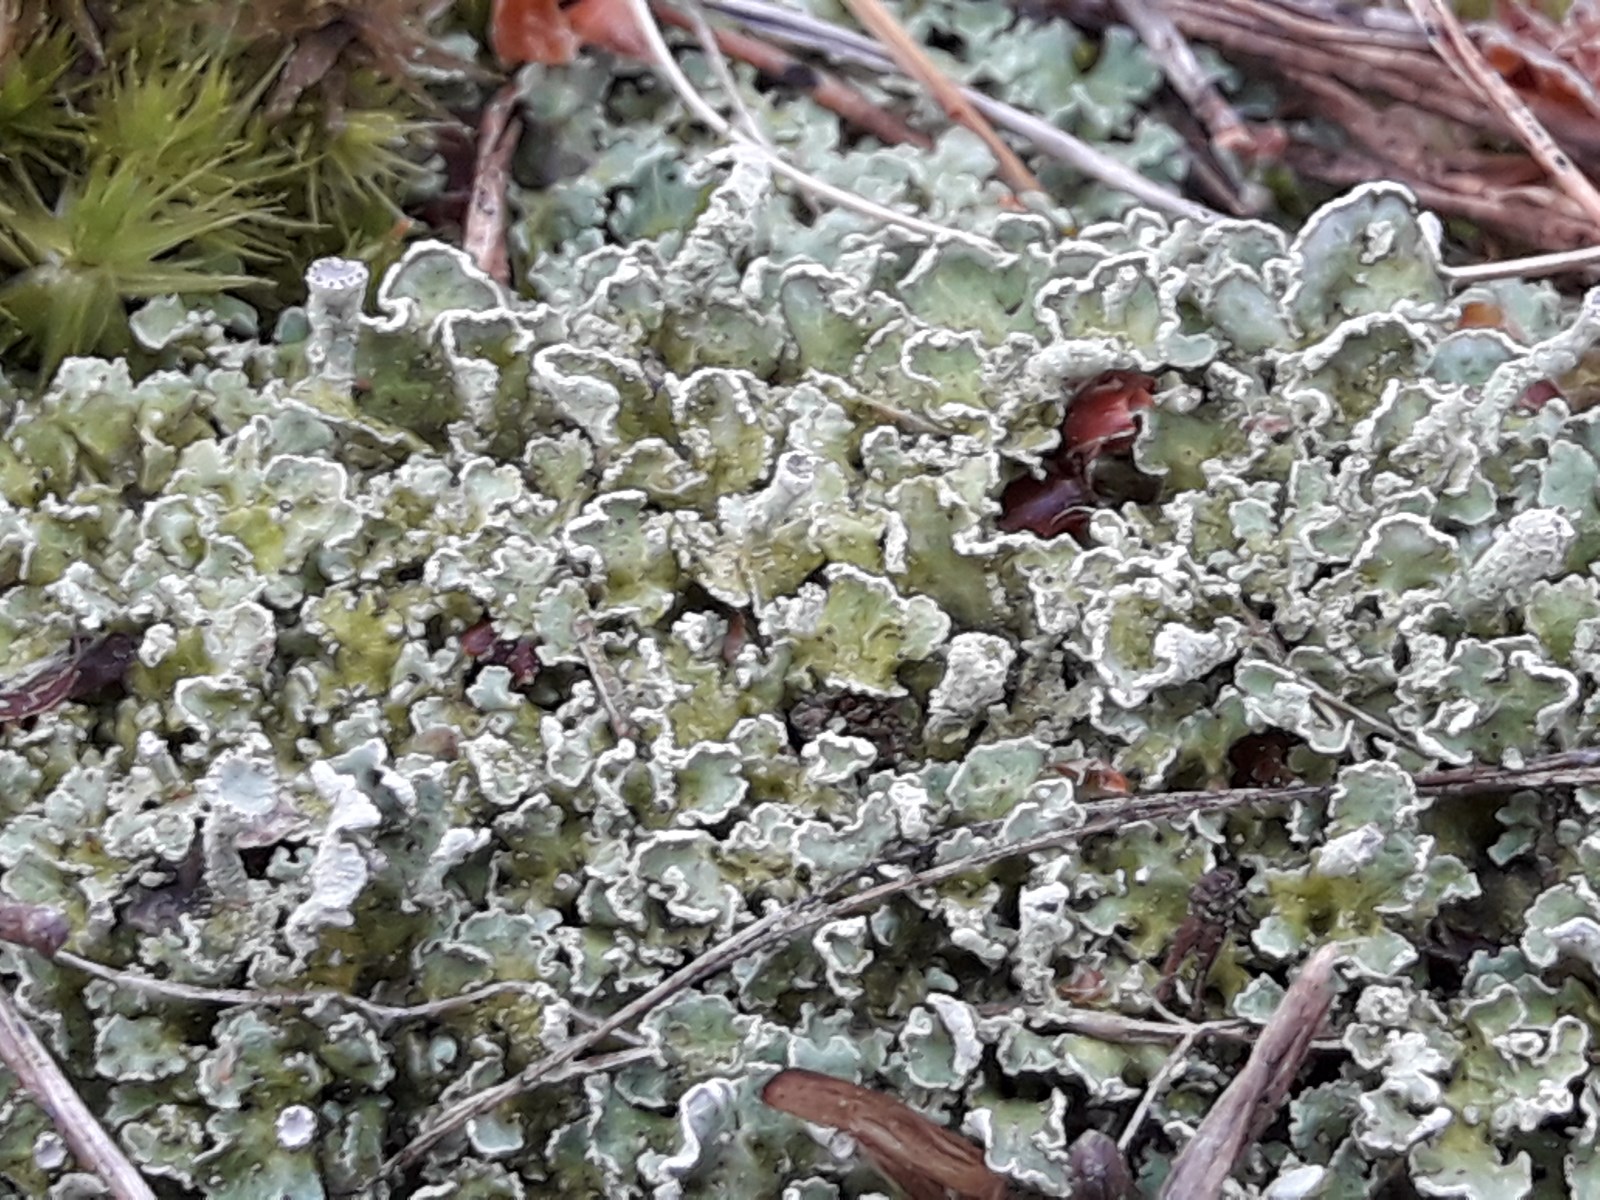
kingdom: Fungi
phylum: Ascomycota
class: Lecanoromycetes
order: Lecanorales
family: Cladoniaceae
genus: Cladonia
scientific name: Cladonia digitata
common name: finger-bægerlav
